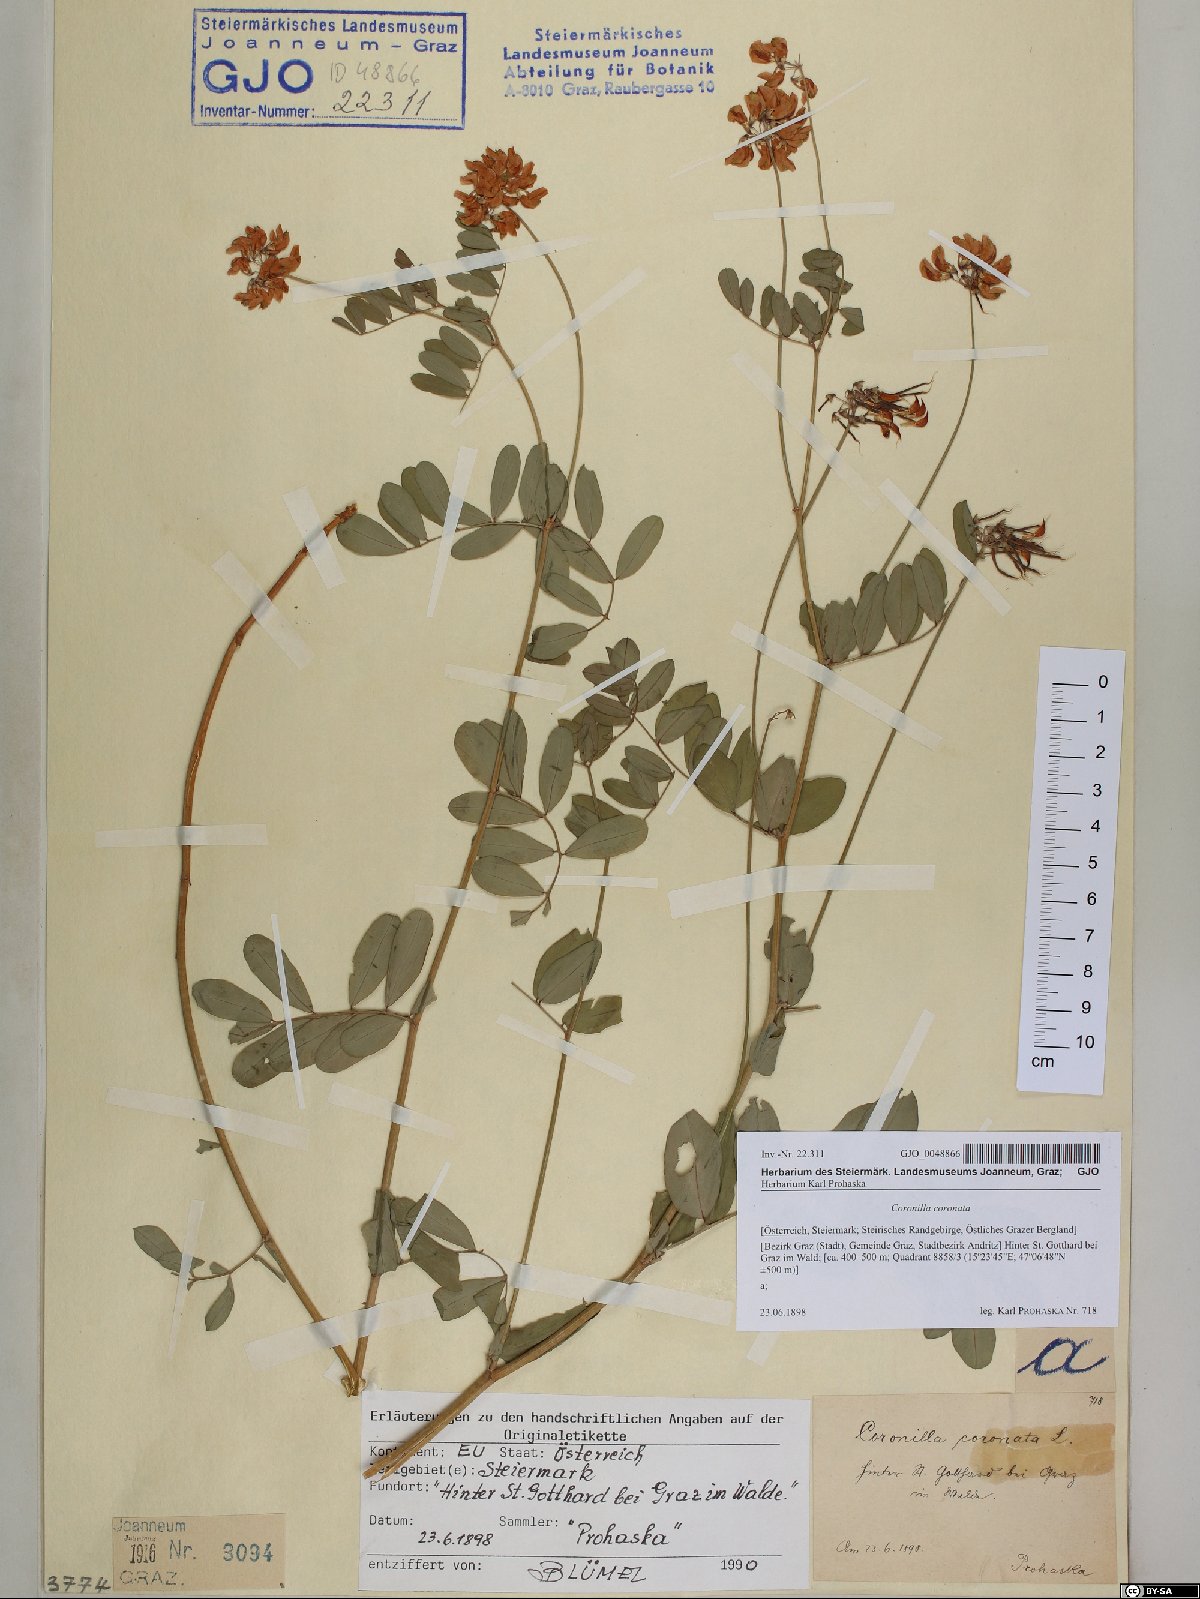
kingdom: Plantae
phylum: Tracheophyta
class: Magnoliopsida
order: Fabales
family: Fabaceae
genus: Coronilla
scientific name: Coronilla coronata
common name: Scorpion-vetch
